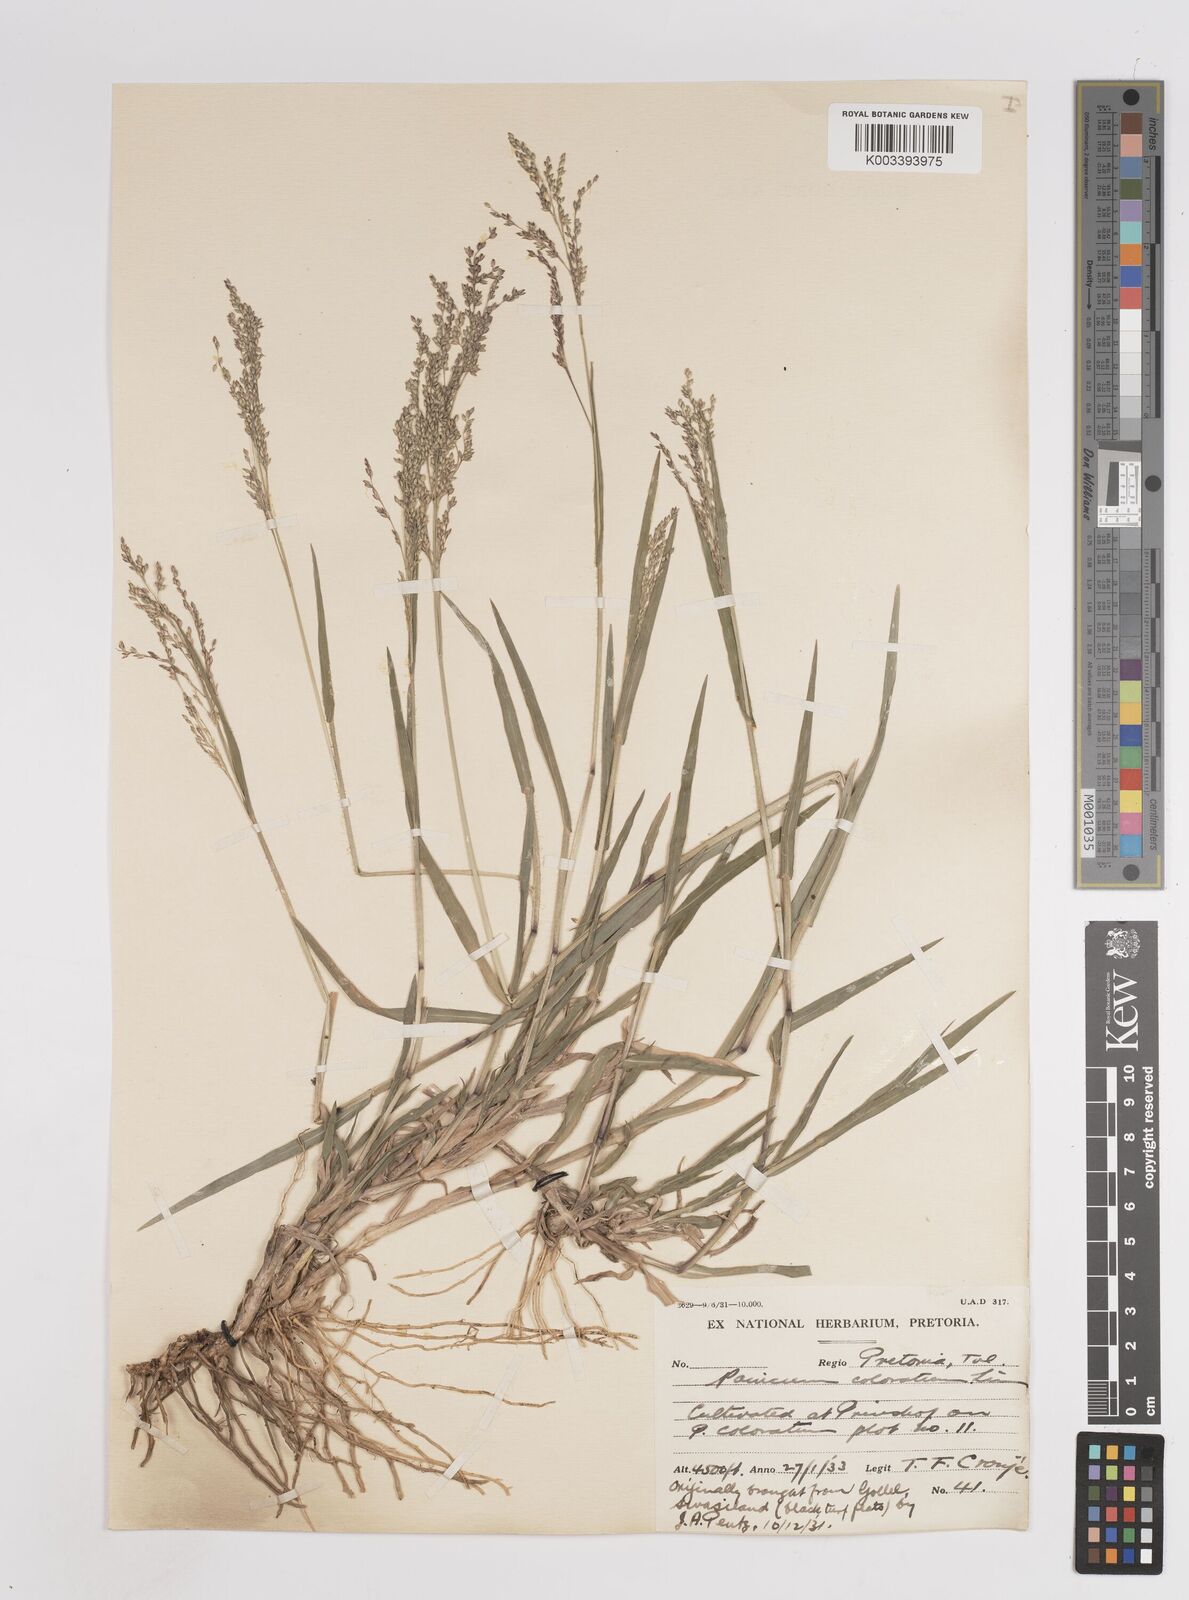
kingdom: Plantae
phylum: Tracheophyta
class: Liliopsida
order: Poales
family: Poaceae
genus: Panicum
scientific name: Panicum coloratum
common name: Kleingrass
